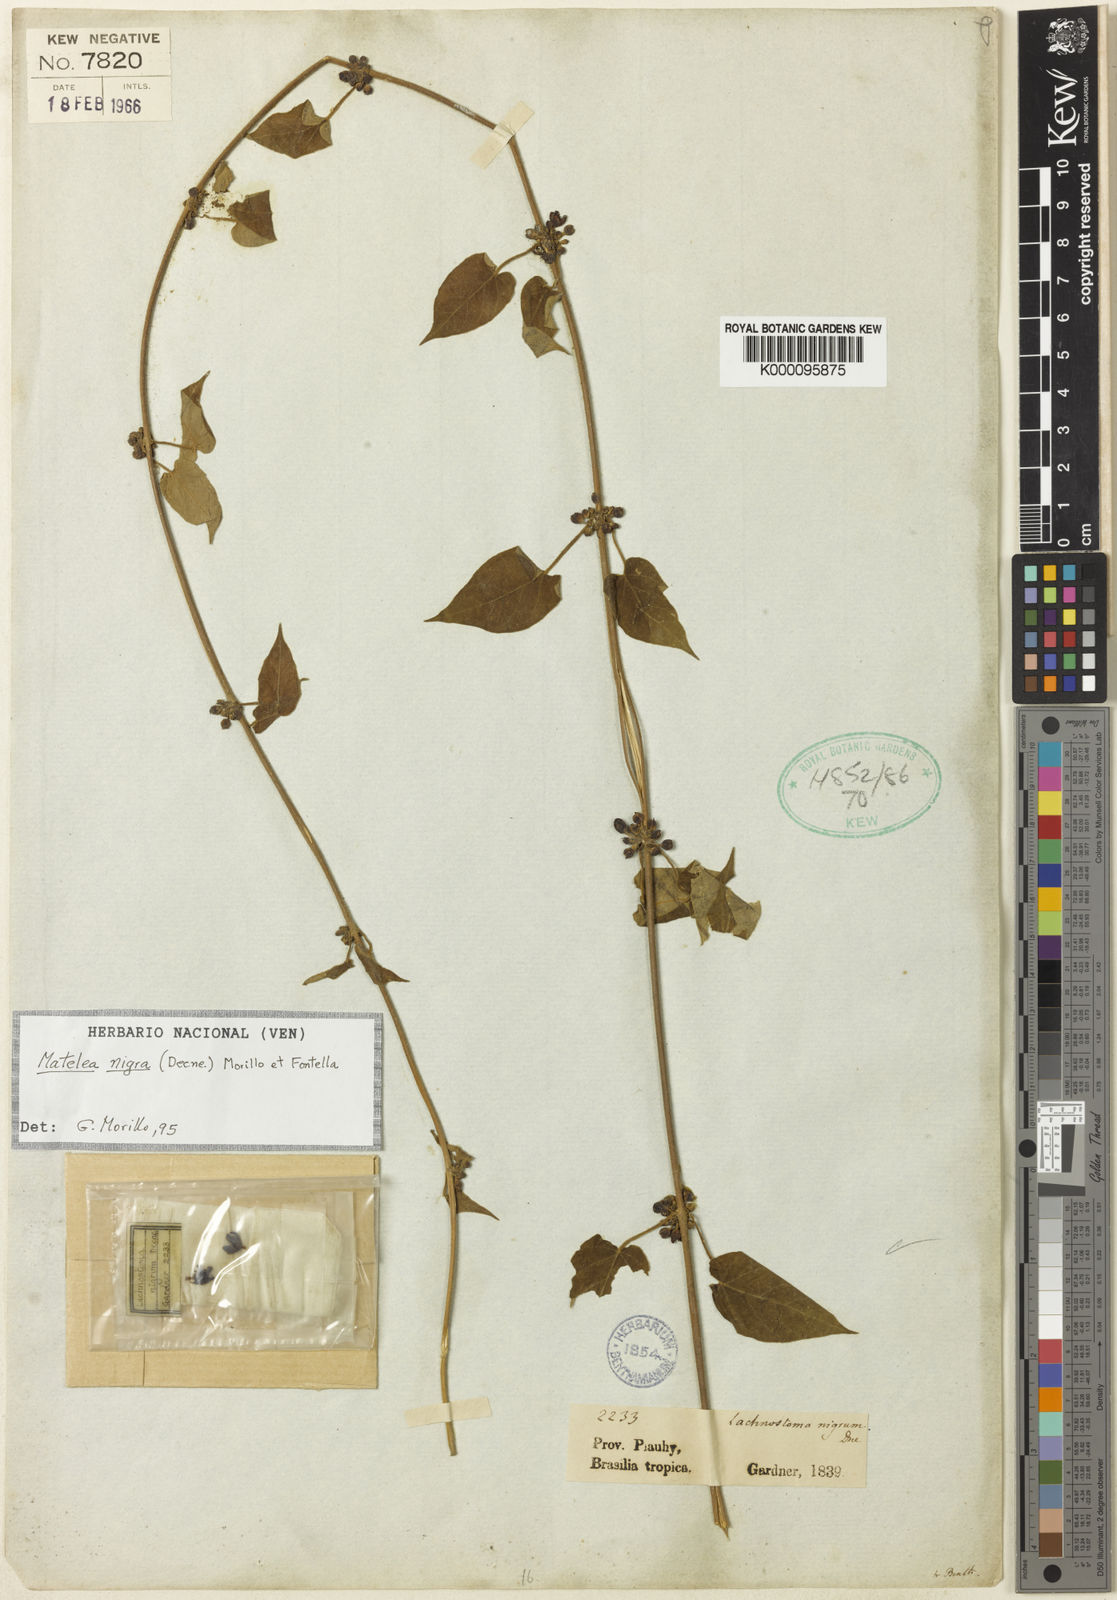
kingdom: Plantae
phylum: Tracheophyta
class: Magnoliopsida
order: Gentianales
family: Apocynaceae
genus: Ibatia
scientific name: Ibatia nigra
